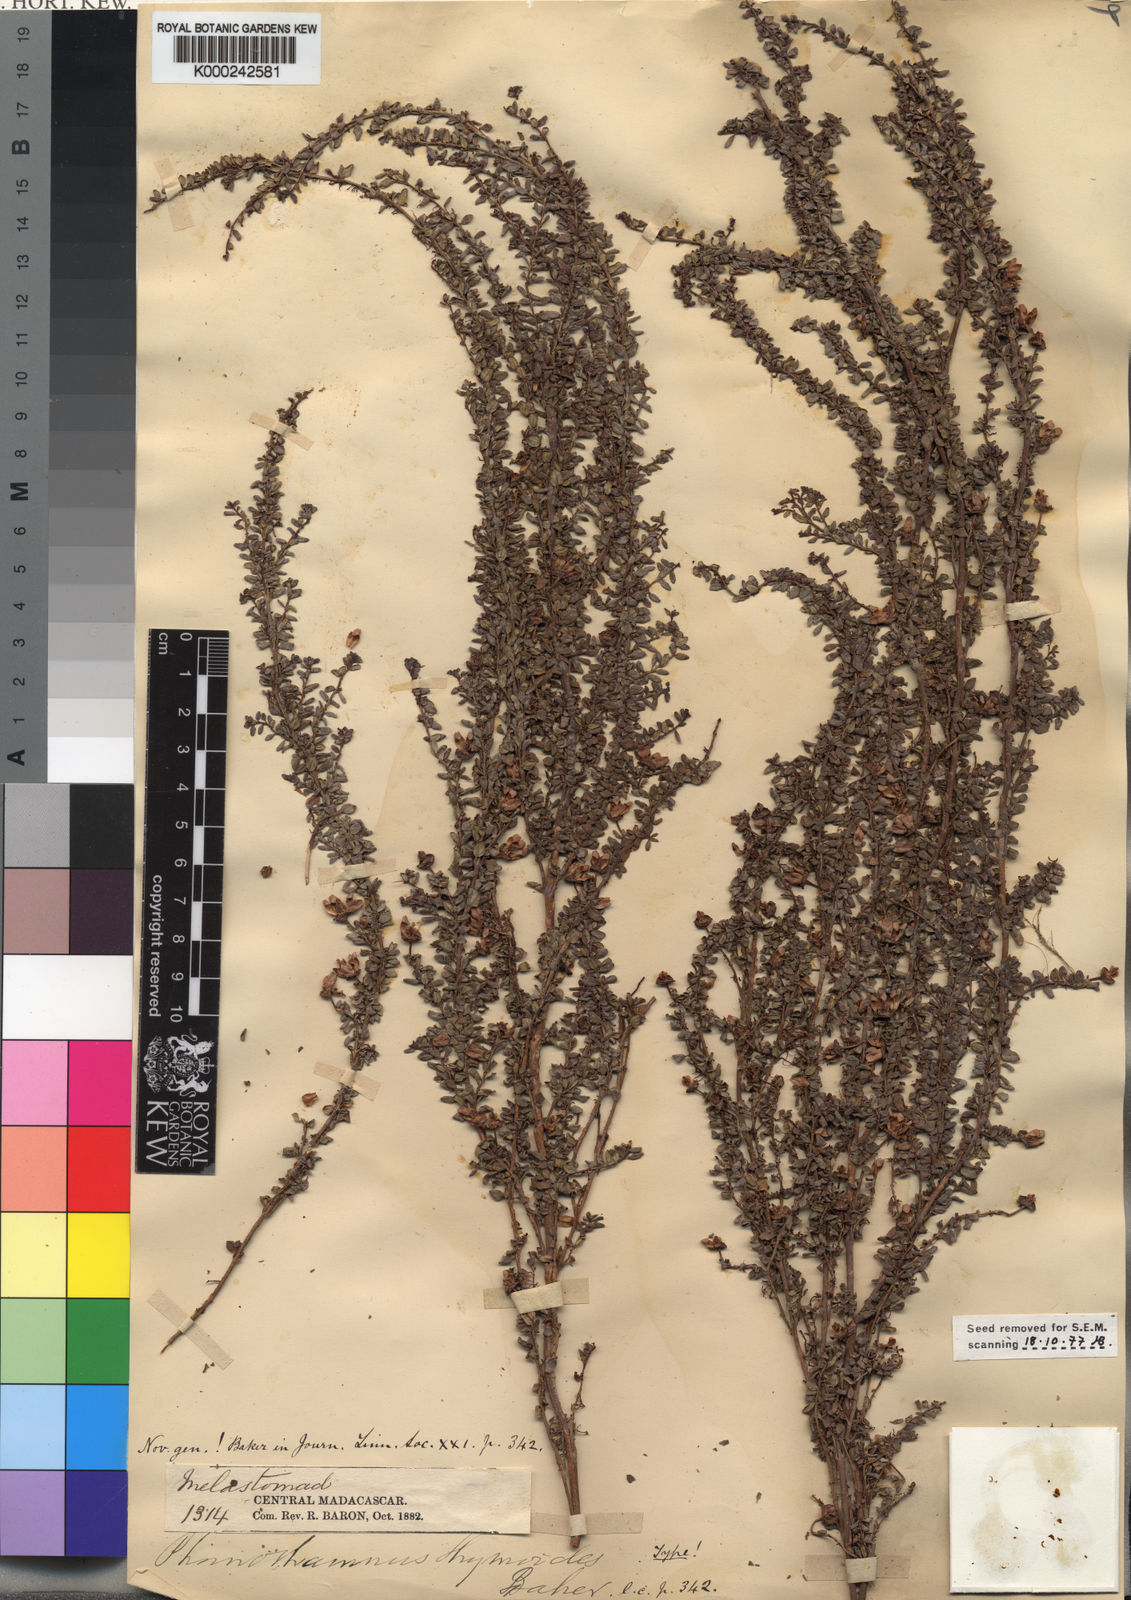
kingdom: Plantae
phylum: Tracheophyta
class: Magnoliopsida
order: Myrtales
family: Melastomataceae
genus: Gravesia
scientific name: Gravesia thymoides
